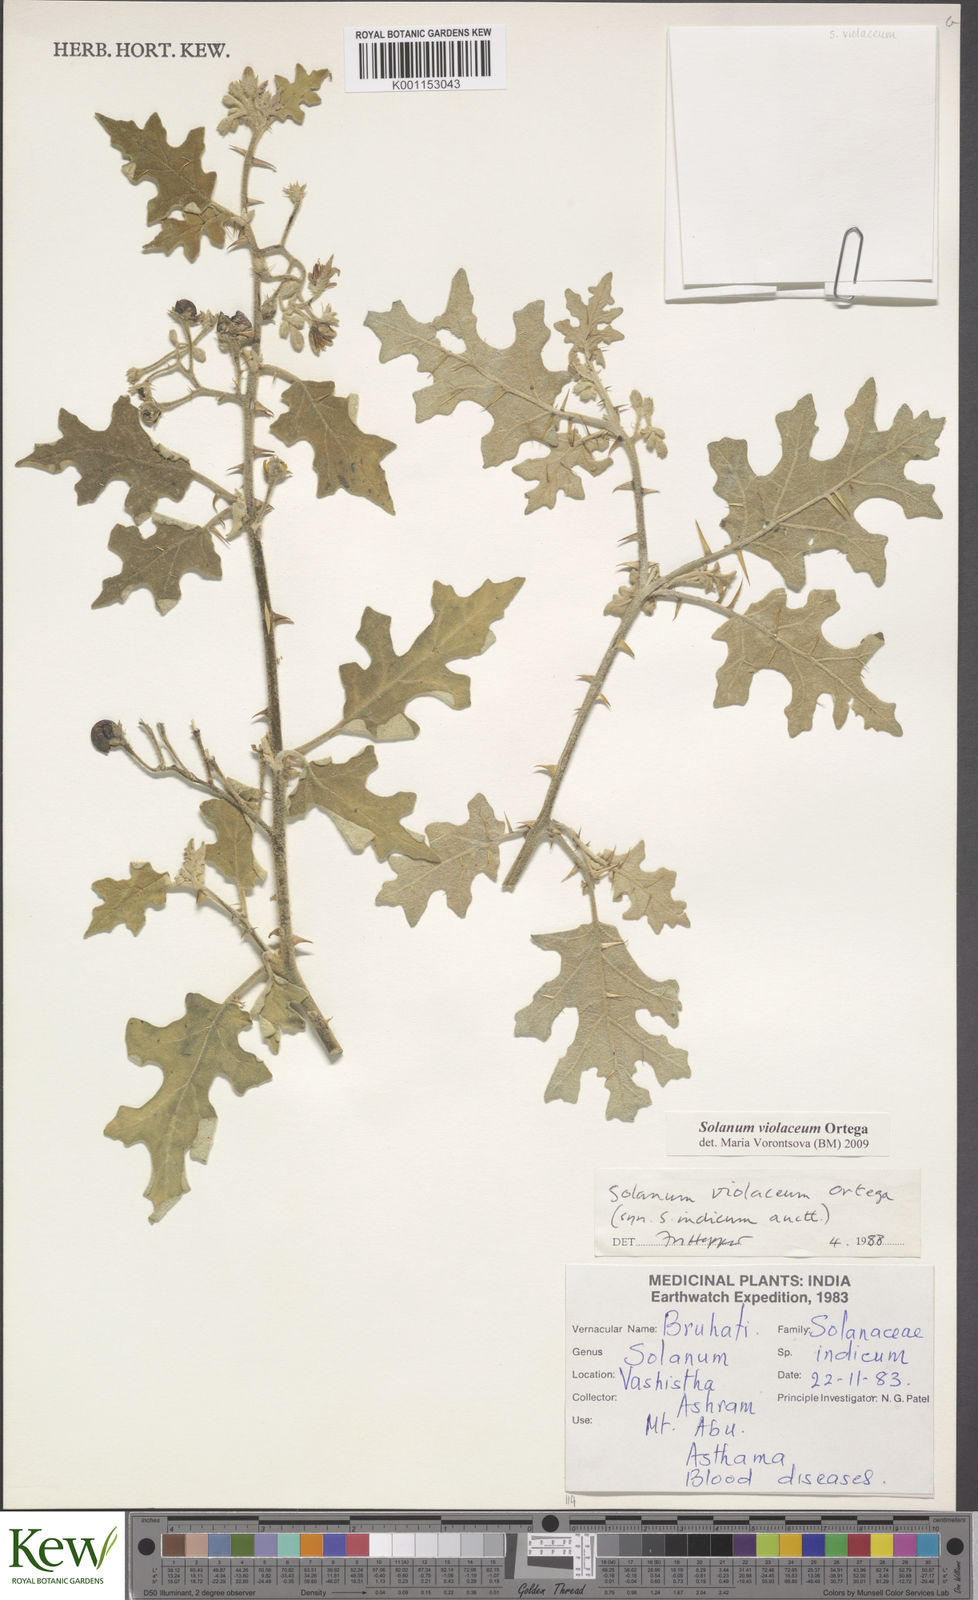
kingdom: Plantae
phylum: Tracheophyta
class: Magnoliopsida
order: Solanales
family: Solanaceae
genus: Solanum
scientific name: Solanum violaceum
